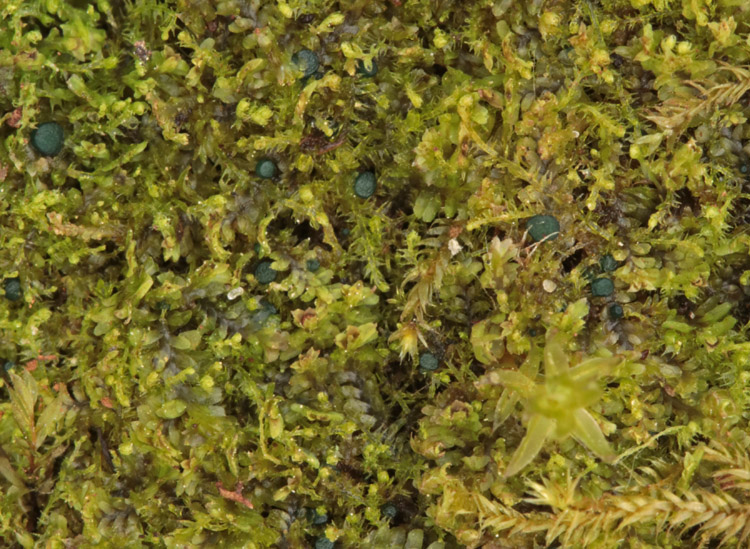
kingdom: Fungi
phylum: Ascomycota
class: Leotiomycetes
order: Leotiales
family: Mniaeciaceae
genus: Mniaecia
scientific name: Mniaecia jungermanniae
